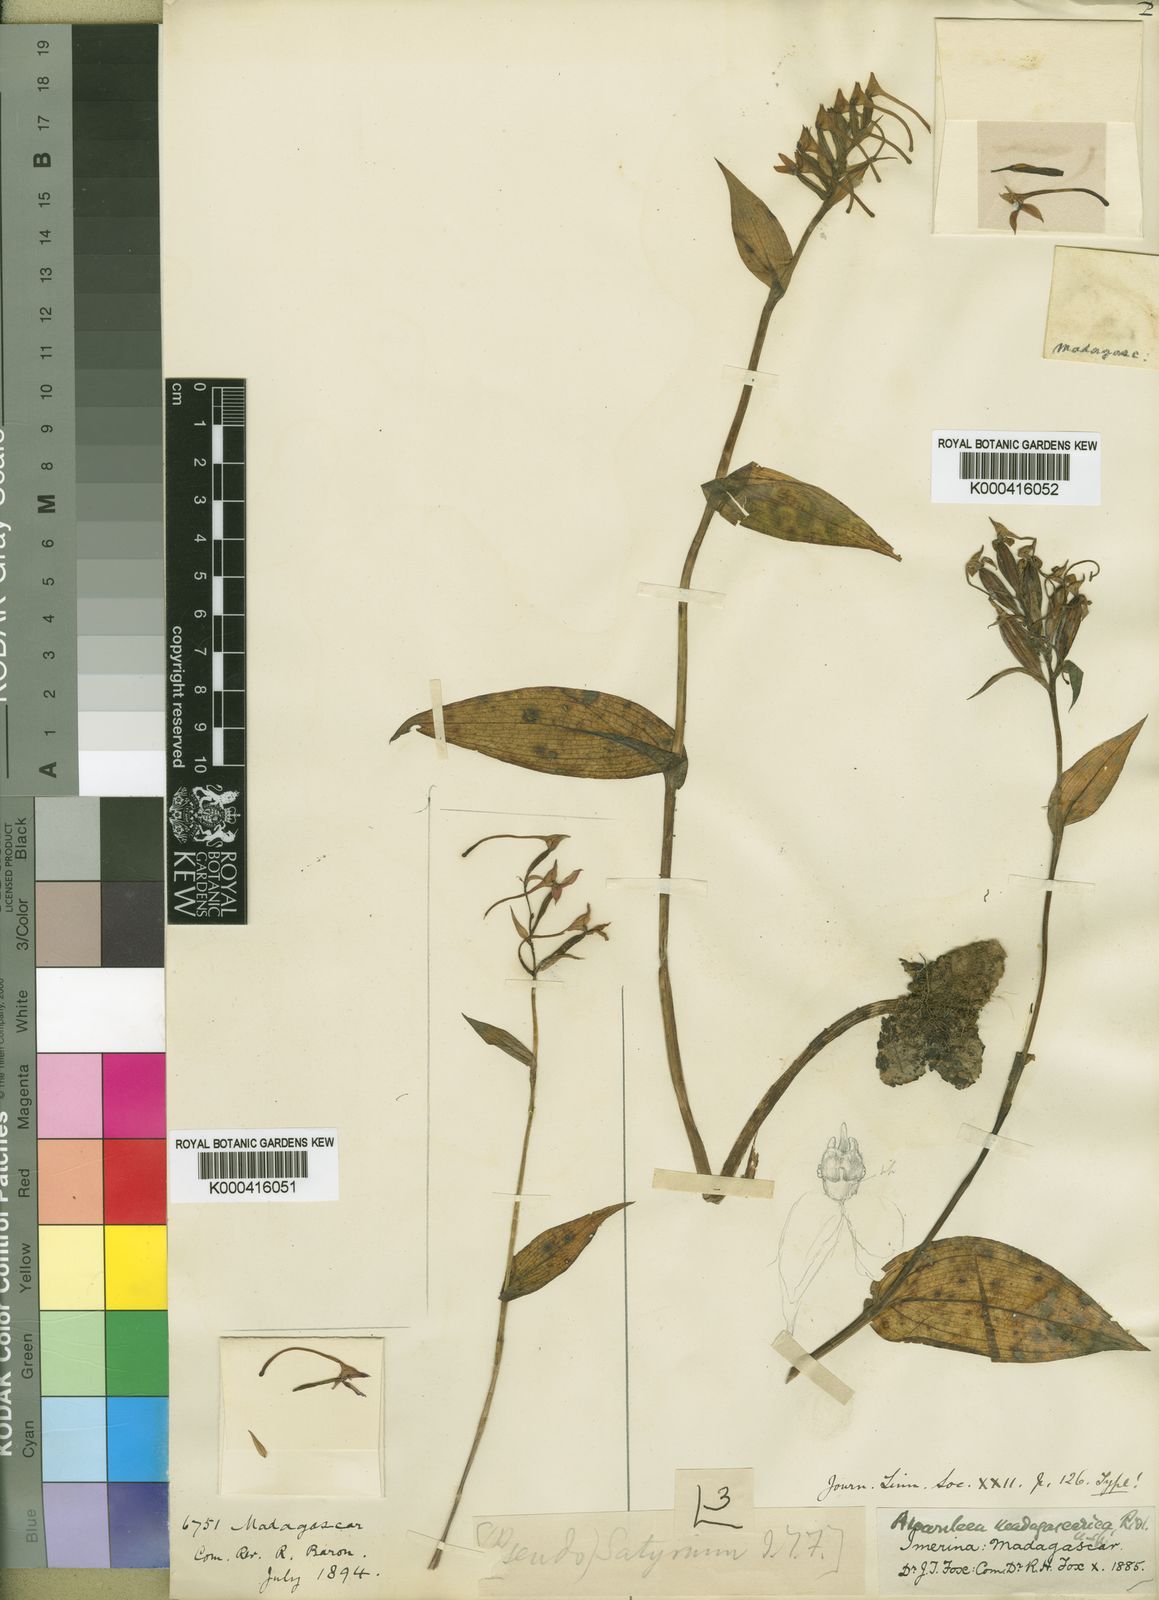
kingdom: Plantae
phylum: Tracheophyta
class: Liliopsida
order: Asparagales
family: Orchidaceae
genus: Brownleea
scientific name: Brownleea coerulea
